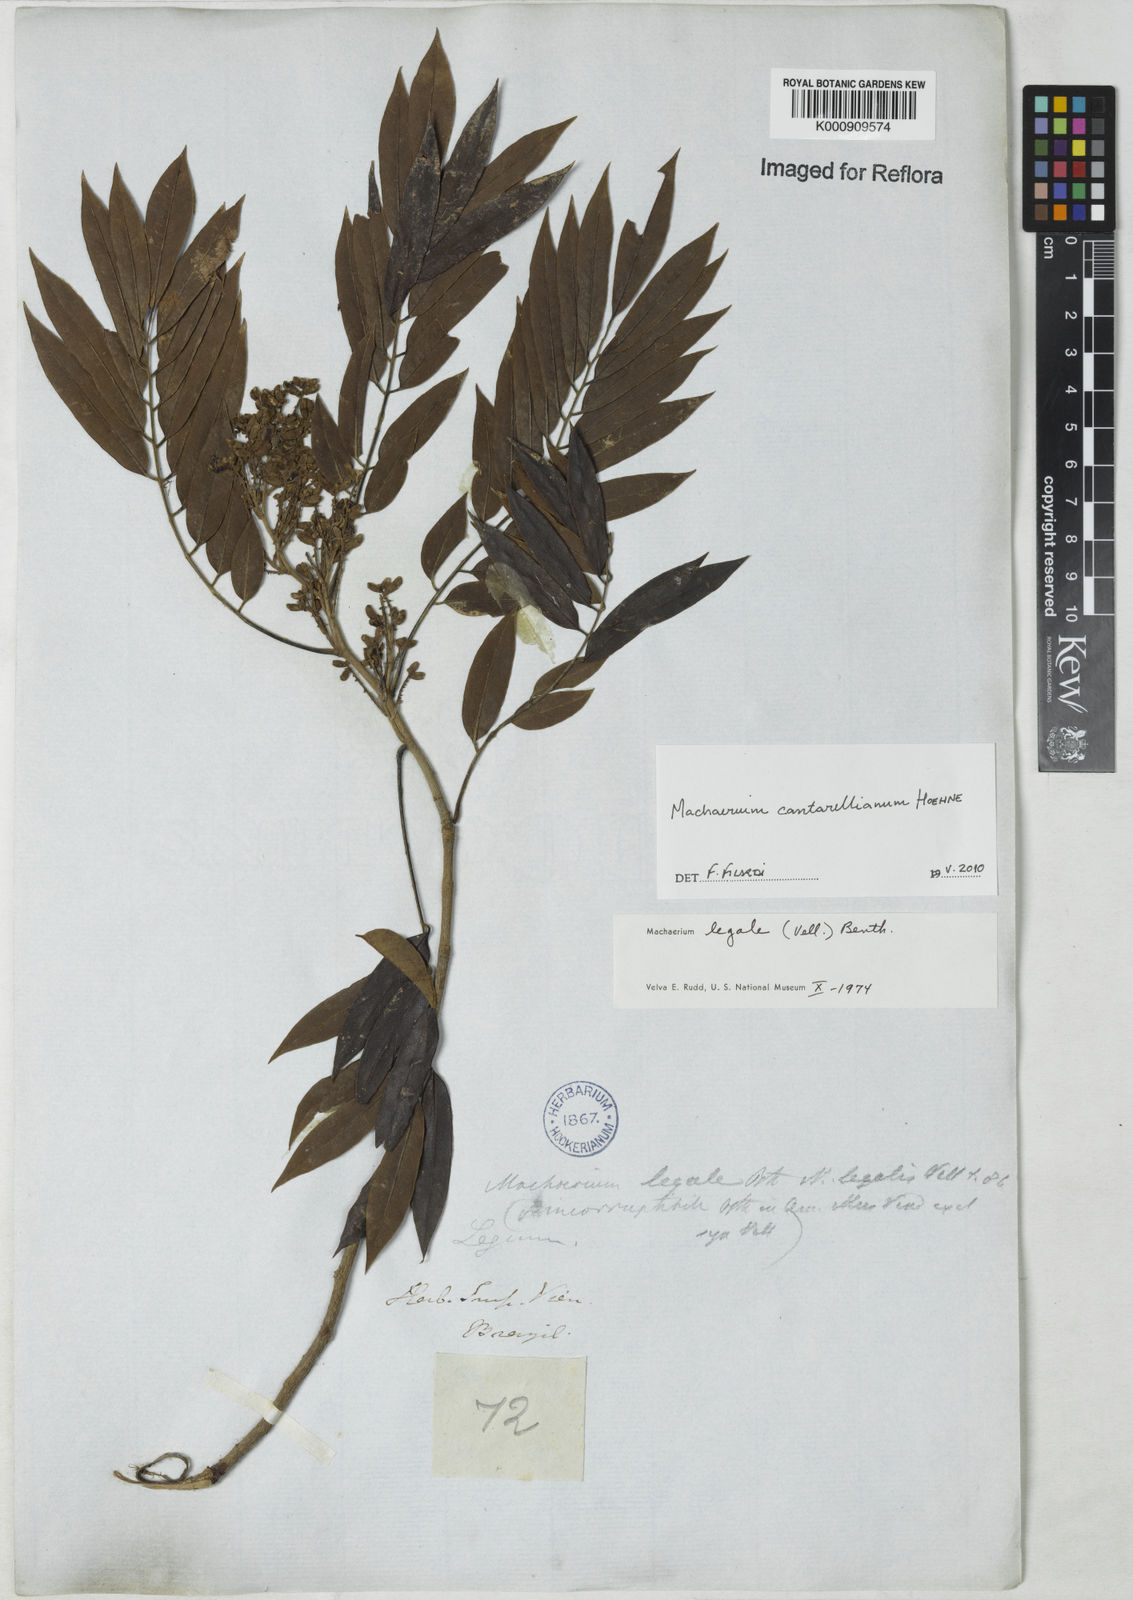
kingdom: Plantae
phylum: Tracheophyta
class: Magnoliopsida
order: Fabales
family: Fabaceae
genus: Machaerium
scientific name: Machaerium cantarellianum
